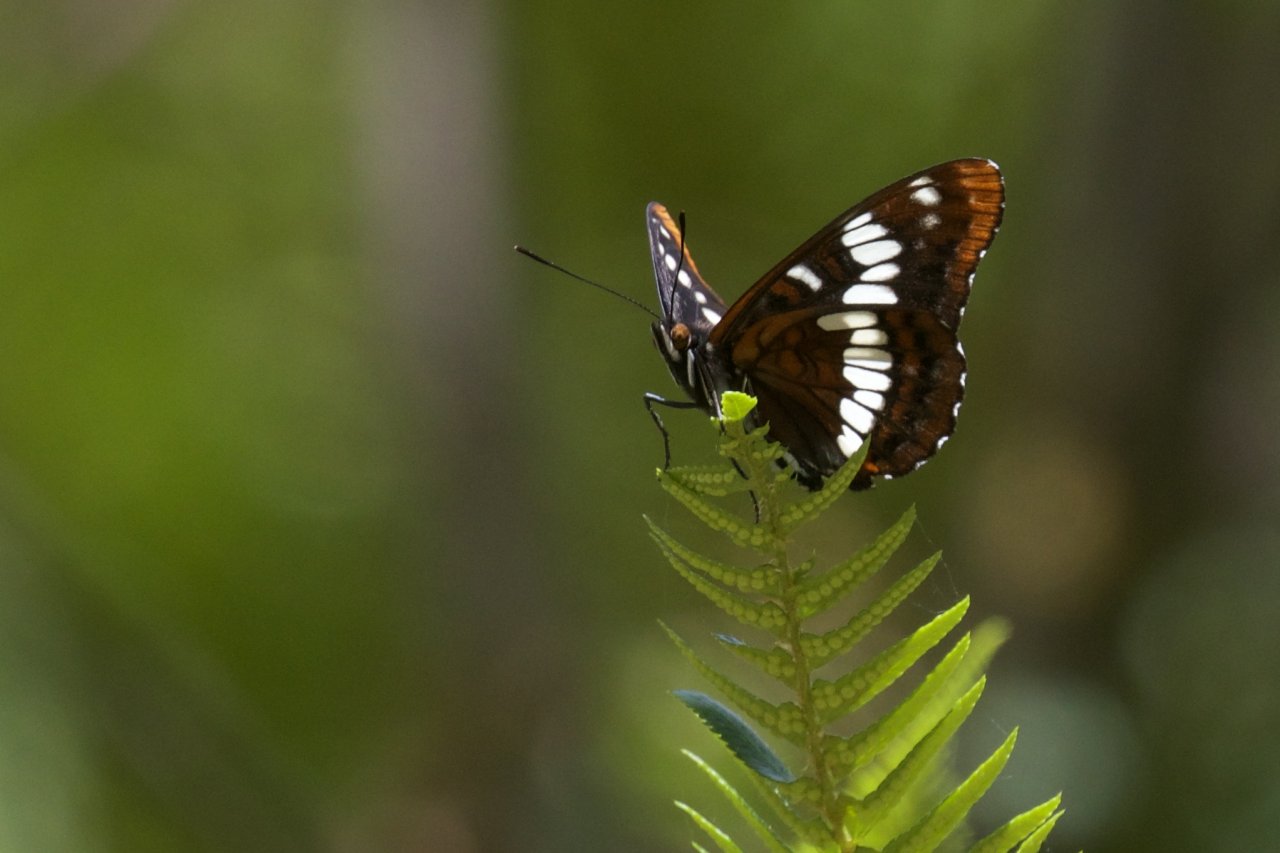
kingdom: Animalia
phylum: Arthropoda
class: Insecta
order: Lepidoptera
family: Nymphalidae
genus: Limenitis
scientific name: Limenitis lorquini
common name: Lorquin's Admiral
